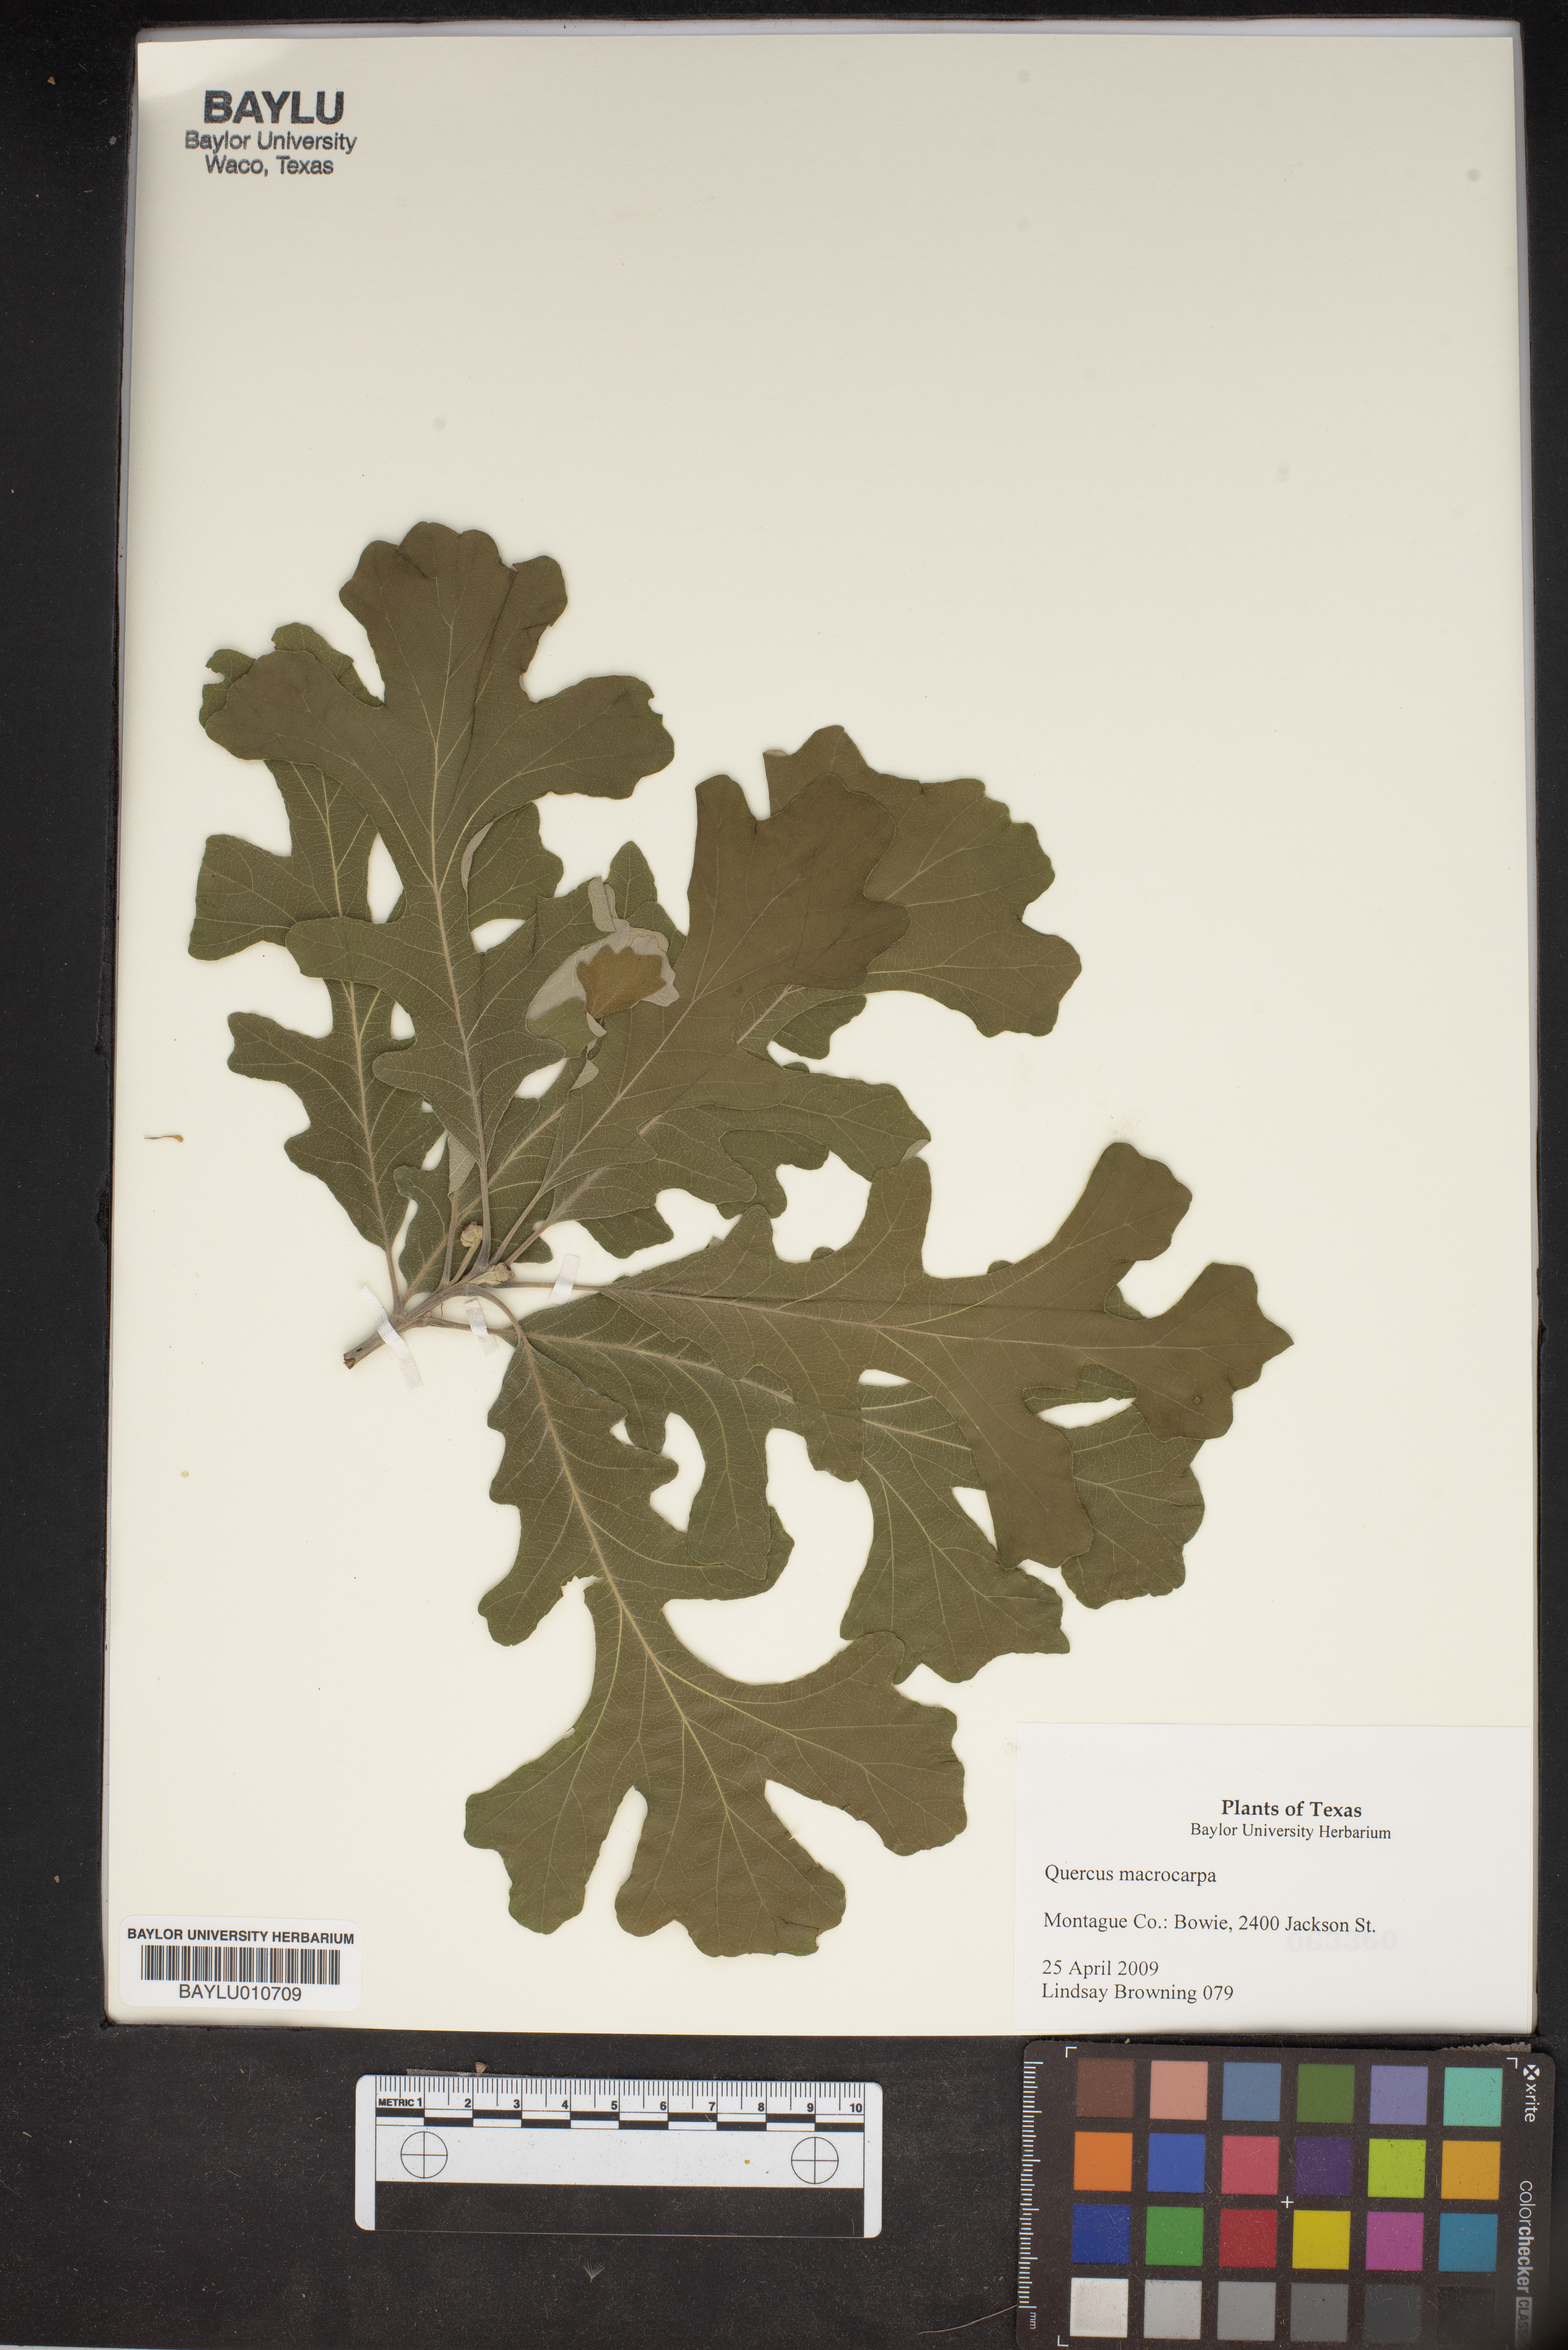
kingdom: Plantae
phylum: Tracheophyta
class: Magnoliopsida
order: Fagales
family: Fagaceae
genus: Quercus
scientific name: Quercus macrocarpa
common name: Bur oak
